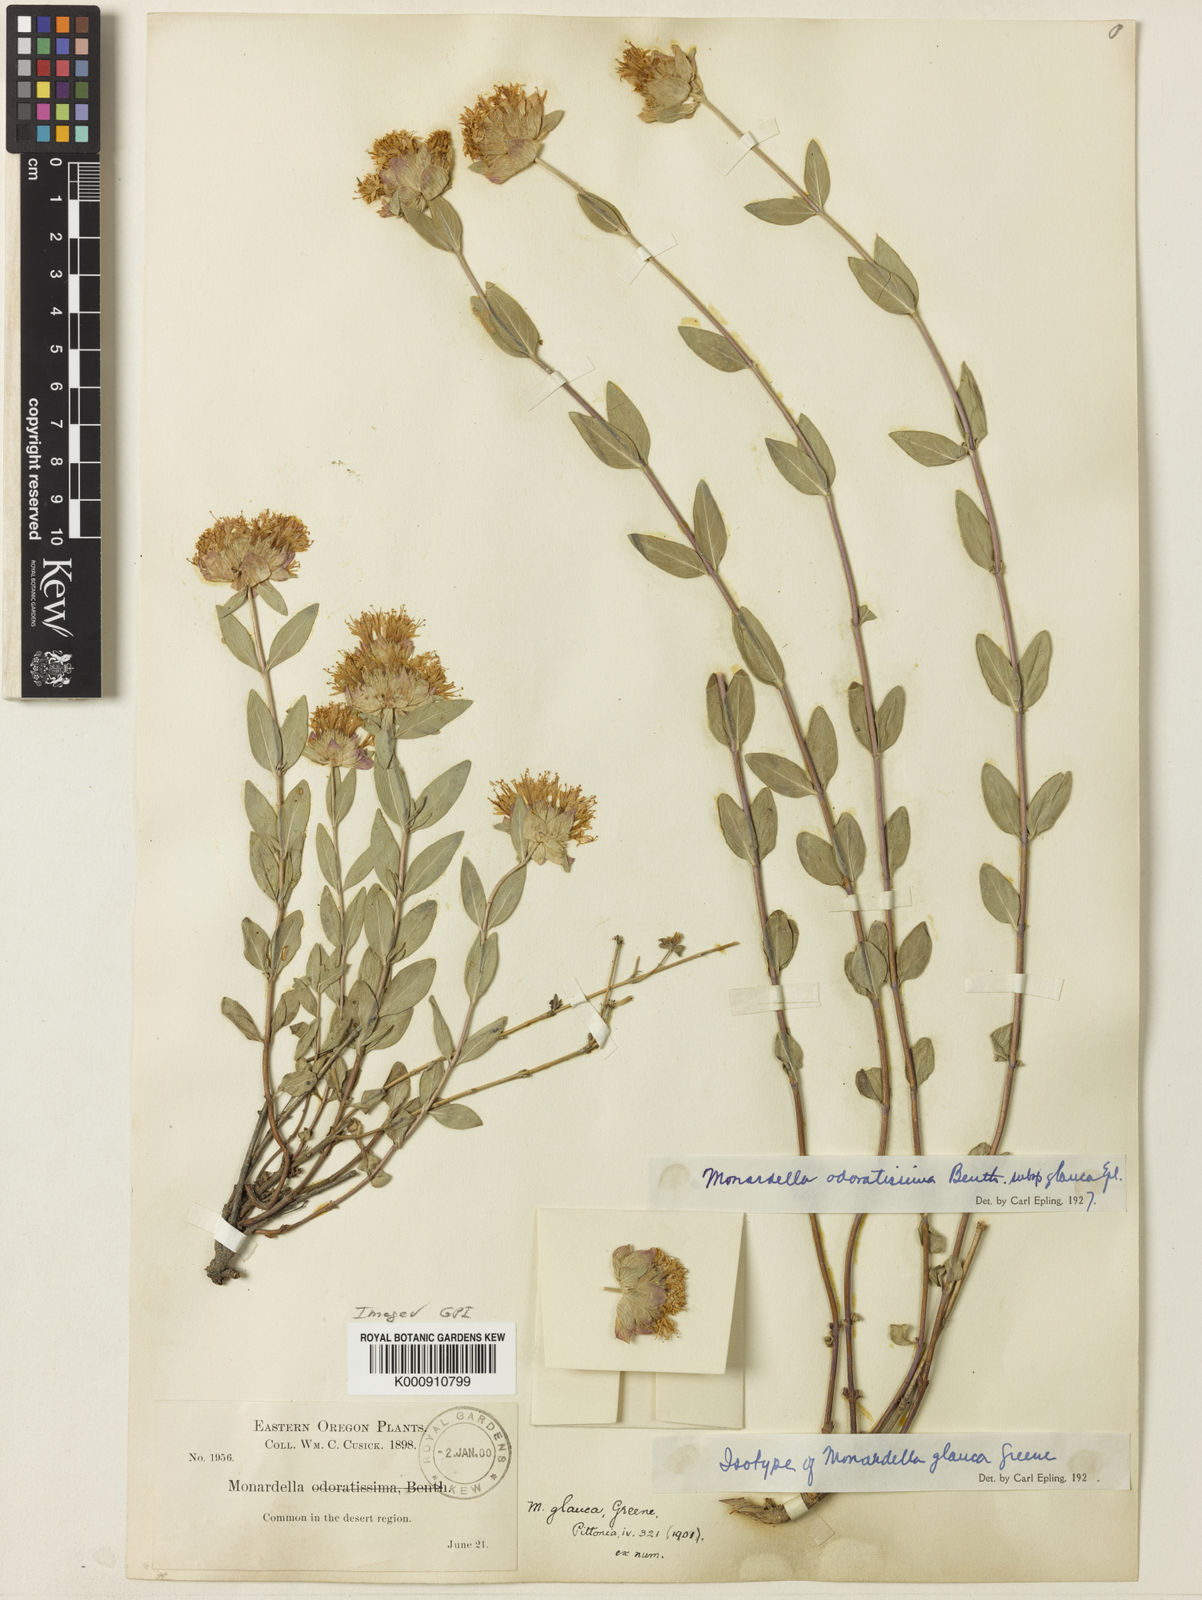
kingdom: Plantae
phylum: Tracheophyta
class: Magnoliopsida
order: Lamiales
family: Lamiaceae
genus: Monardella
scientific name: Monardella odoratissima
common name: Pacific monardella
